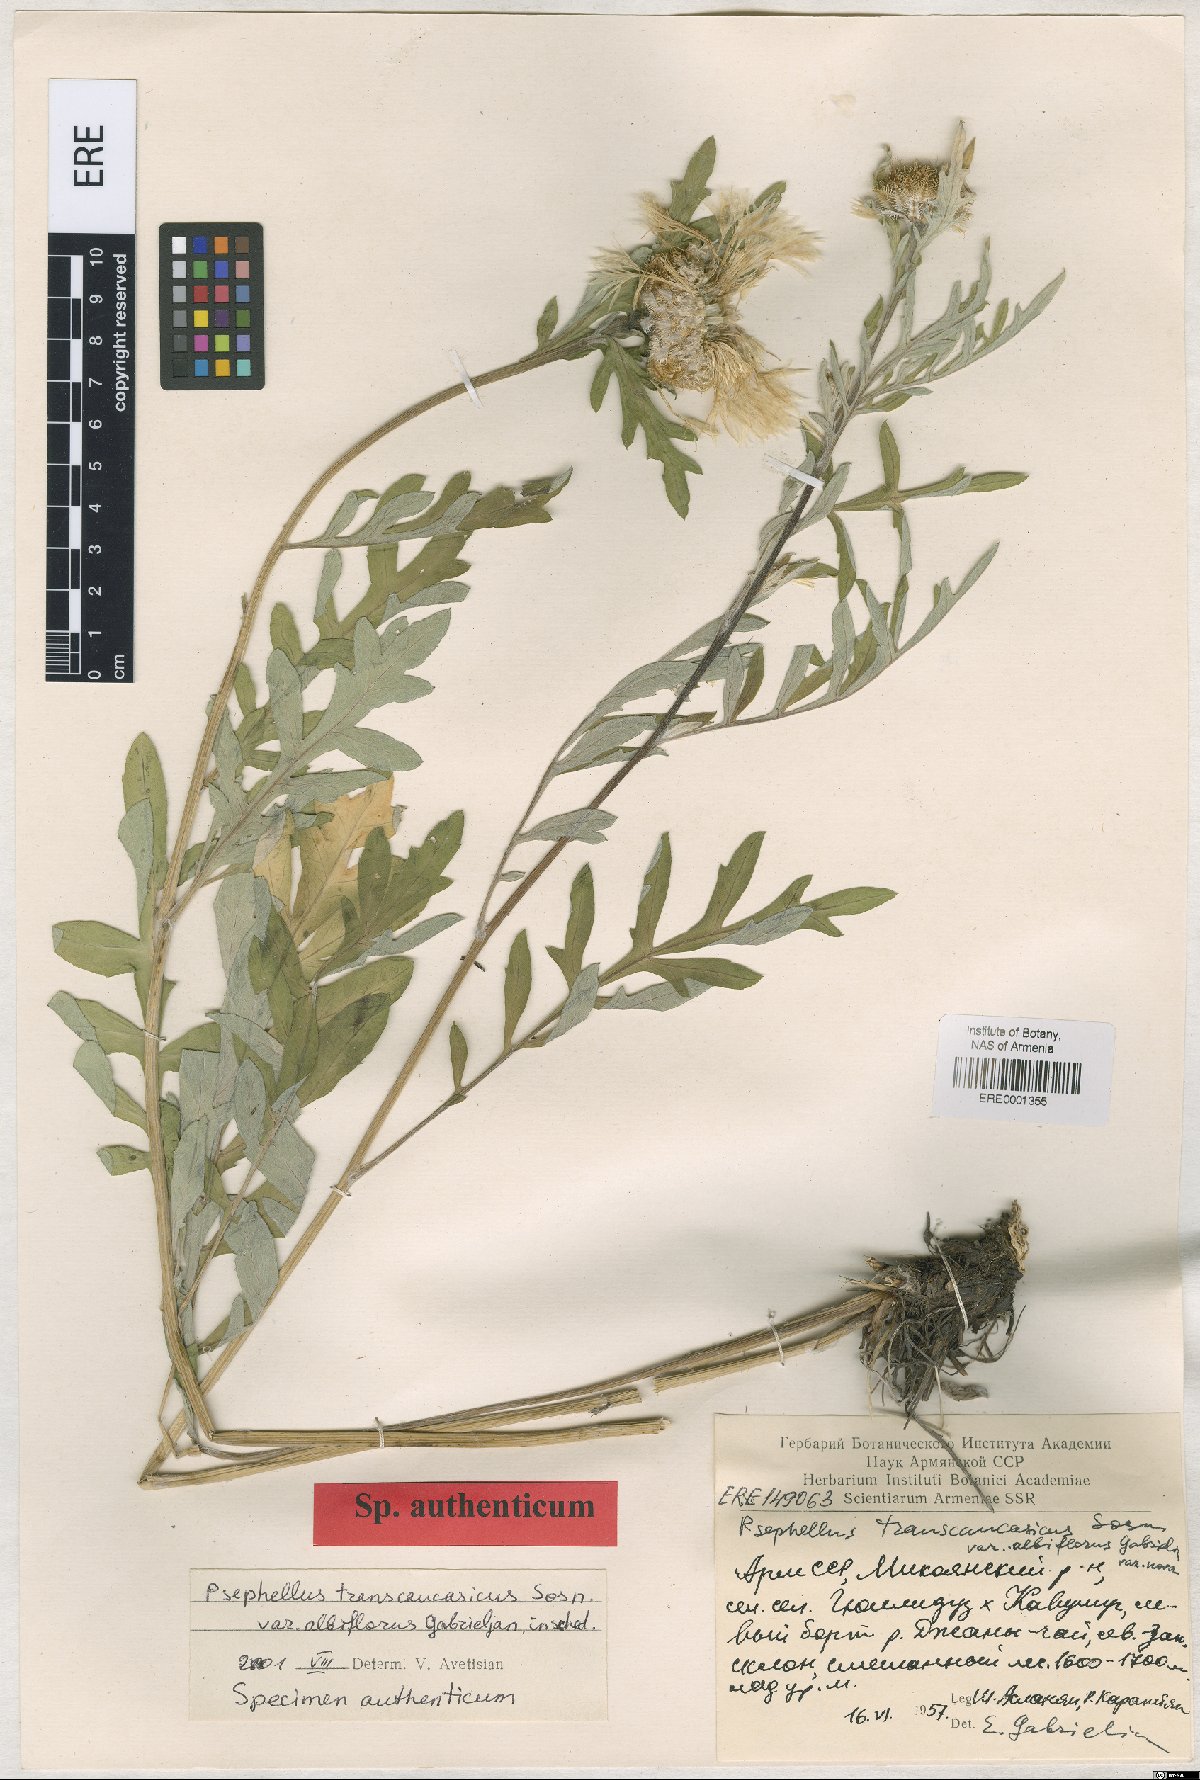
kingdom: Plantae
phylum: Tracheophyta
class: Magnoliopsida
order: Asterales
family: Asteraceae
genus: Psephellus
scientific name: Psephellus transcaucasicus
